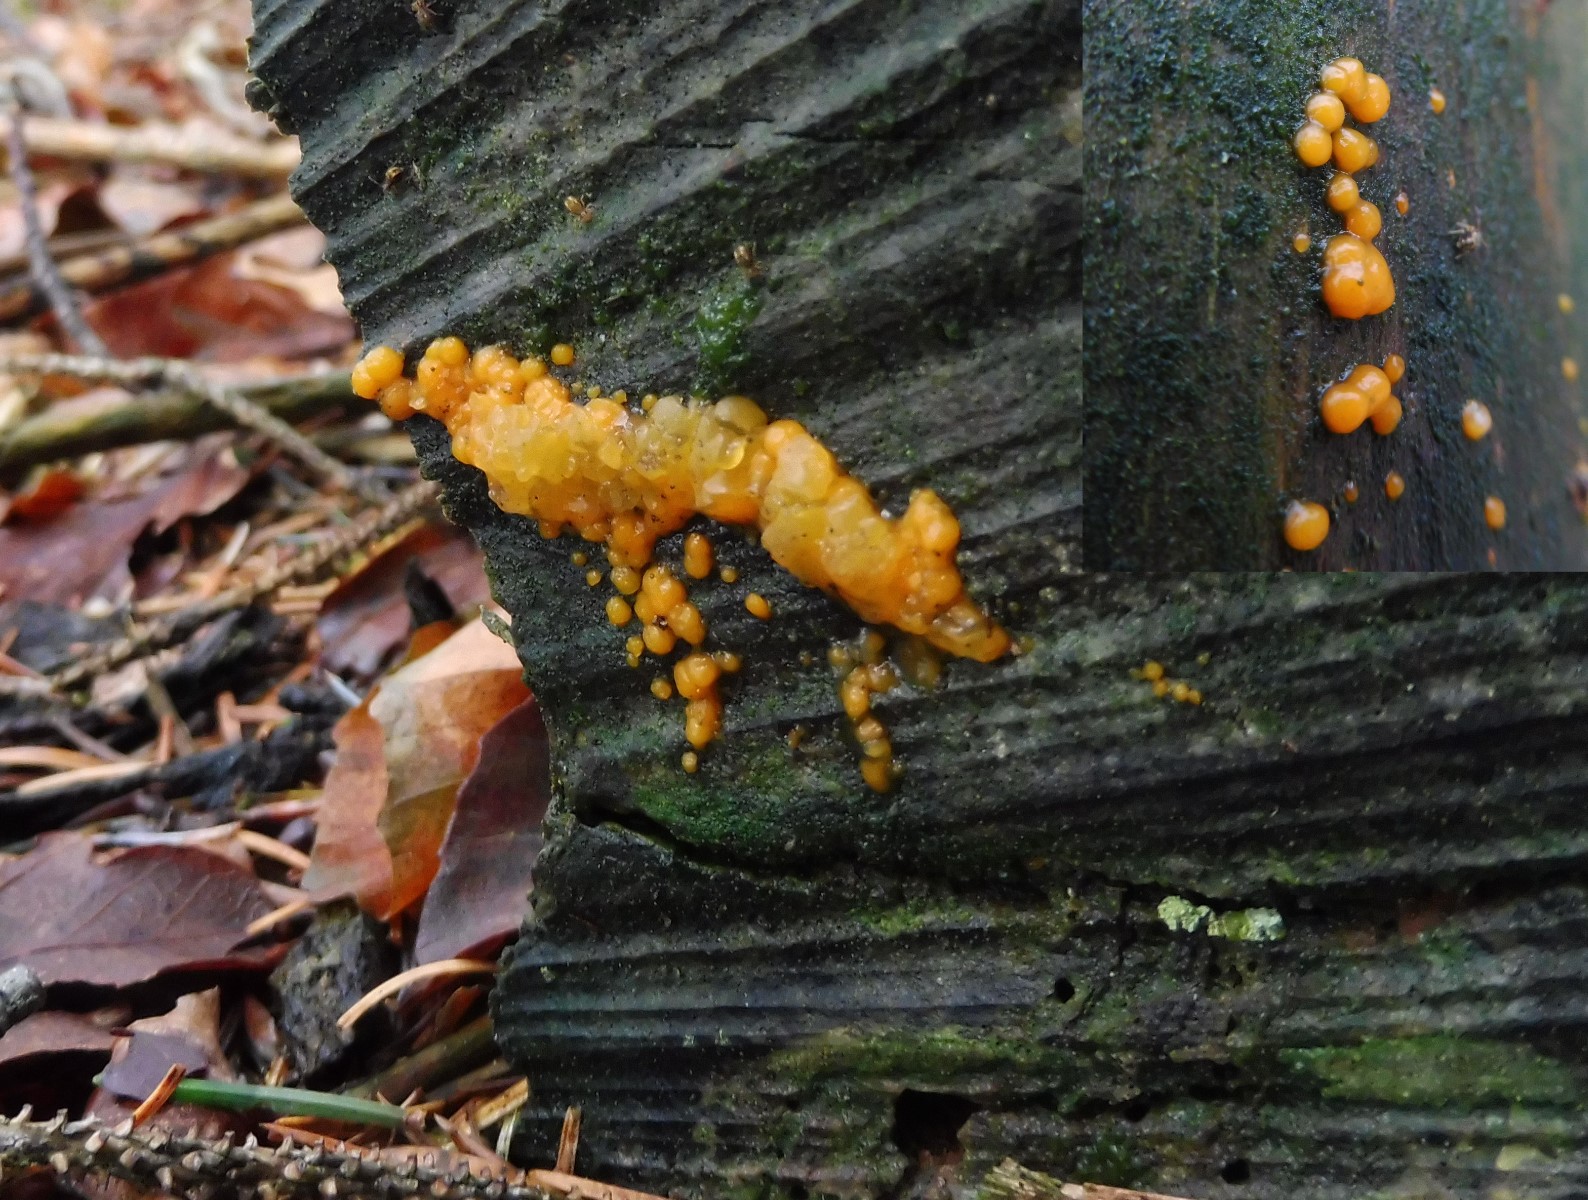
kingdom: Fungi
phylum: Basidiomycota
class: Dacrymycetes
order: Dacrymycetales
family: Dacrymycetaceae
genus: Dacrymyces
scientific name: Dacrymyces stillatus
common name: almindelig tåresvamp
